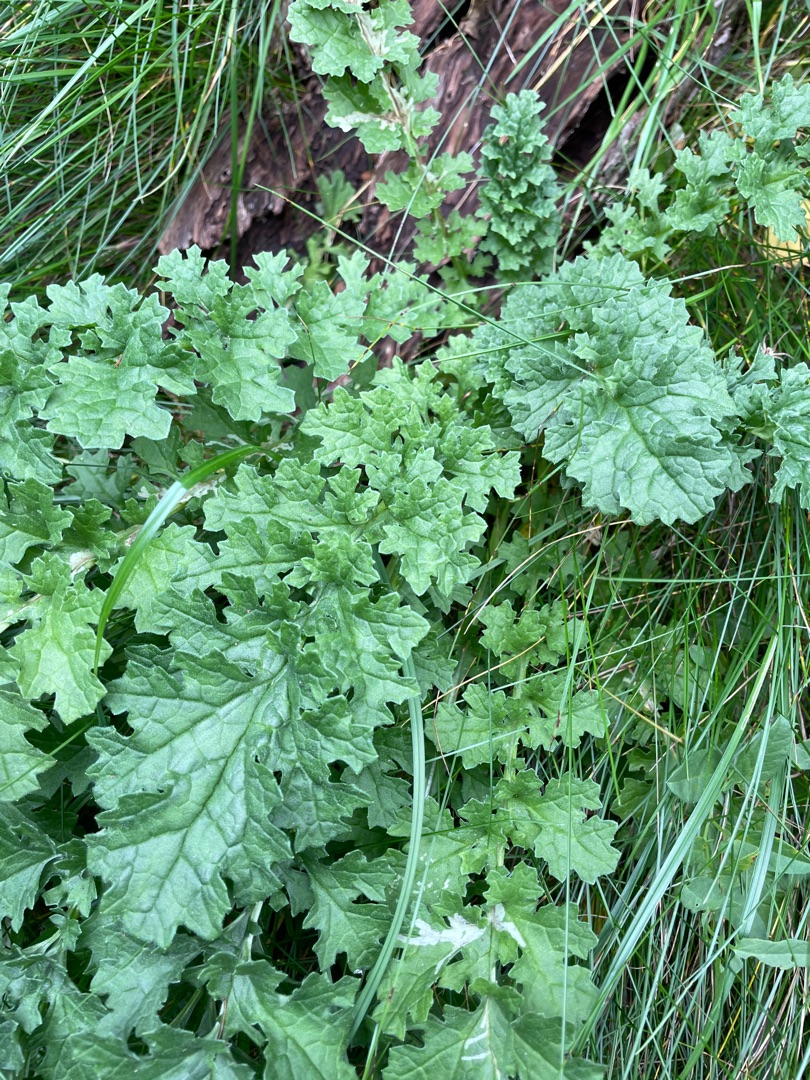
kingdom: Plantae
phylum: Tracheophyta
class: Magnoliopsida
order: Asterales
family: Asteraceae
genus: Jacobaea
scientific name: Jacobaea vulgaris
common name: Eng-brandbæger
